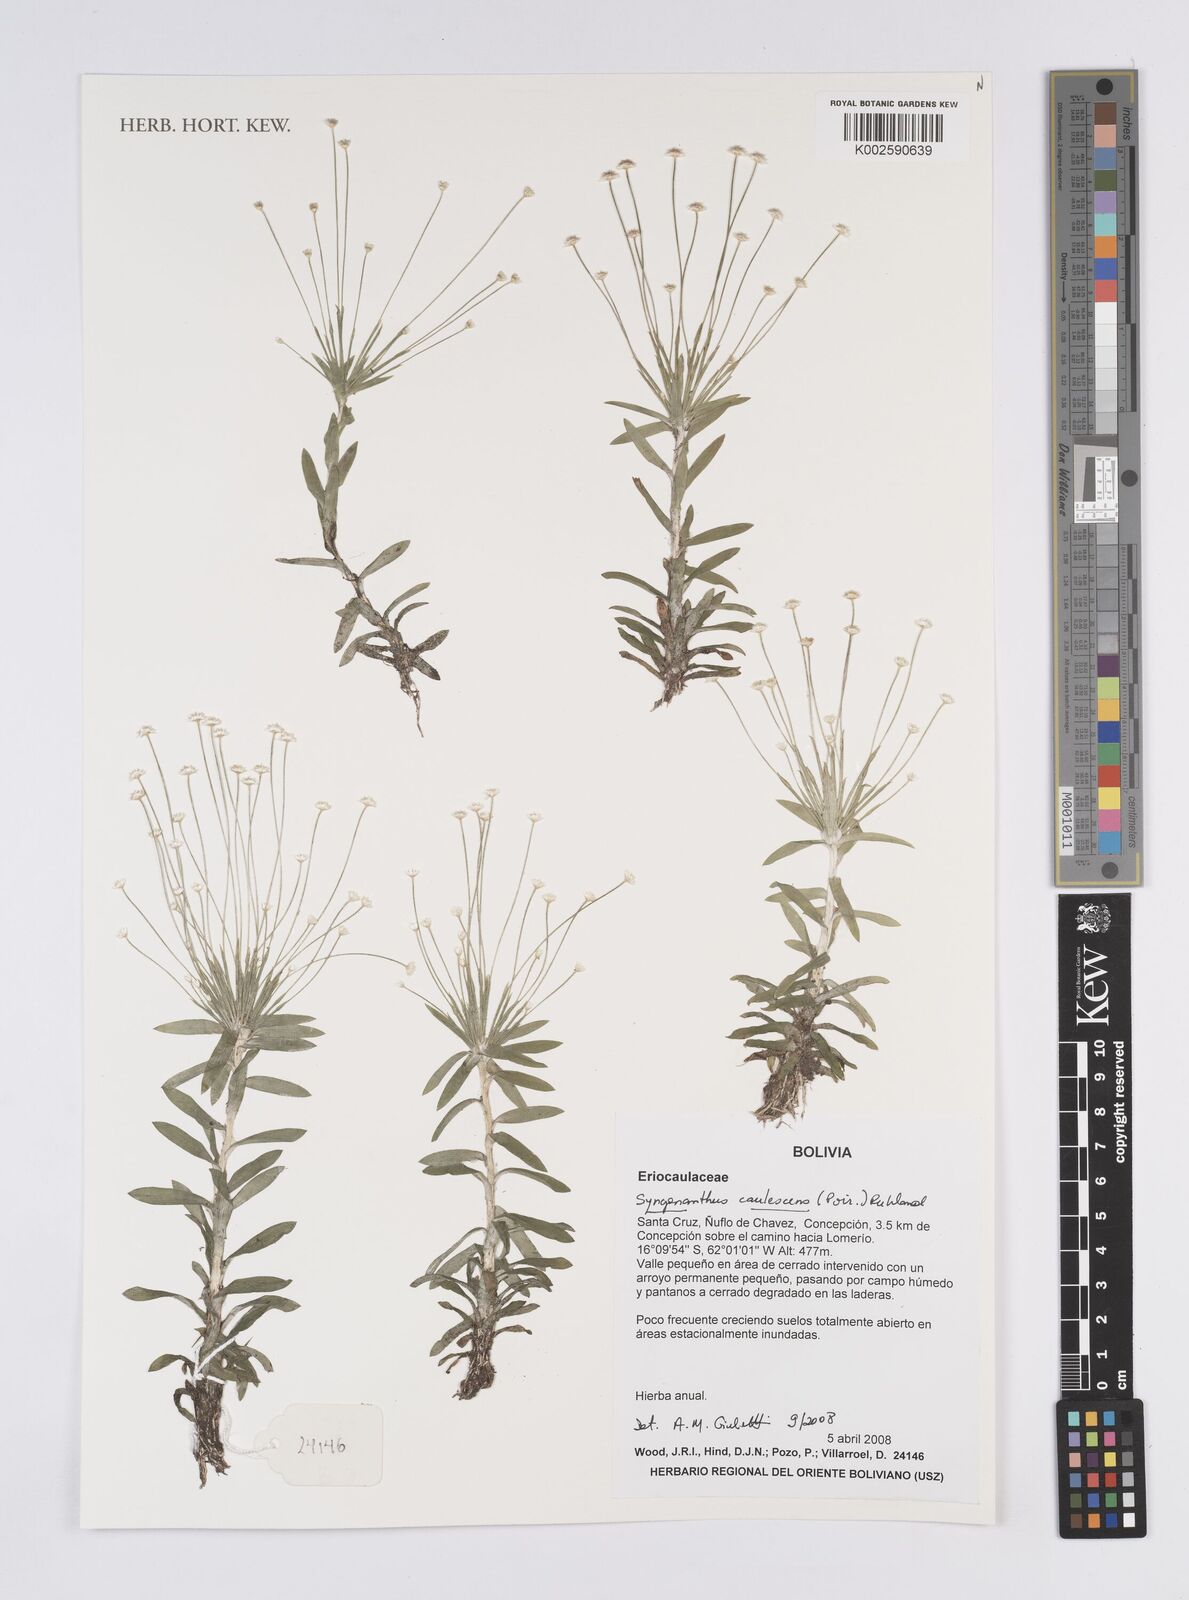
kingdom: Plantae
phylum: Tracheophyta
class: Liliopsida
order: Poales
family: Eriocaulaceae
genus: Syngonanthus
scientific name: Syngonanthus caulescens
